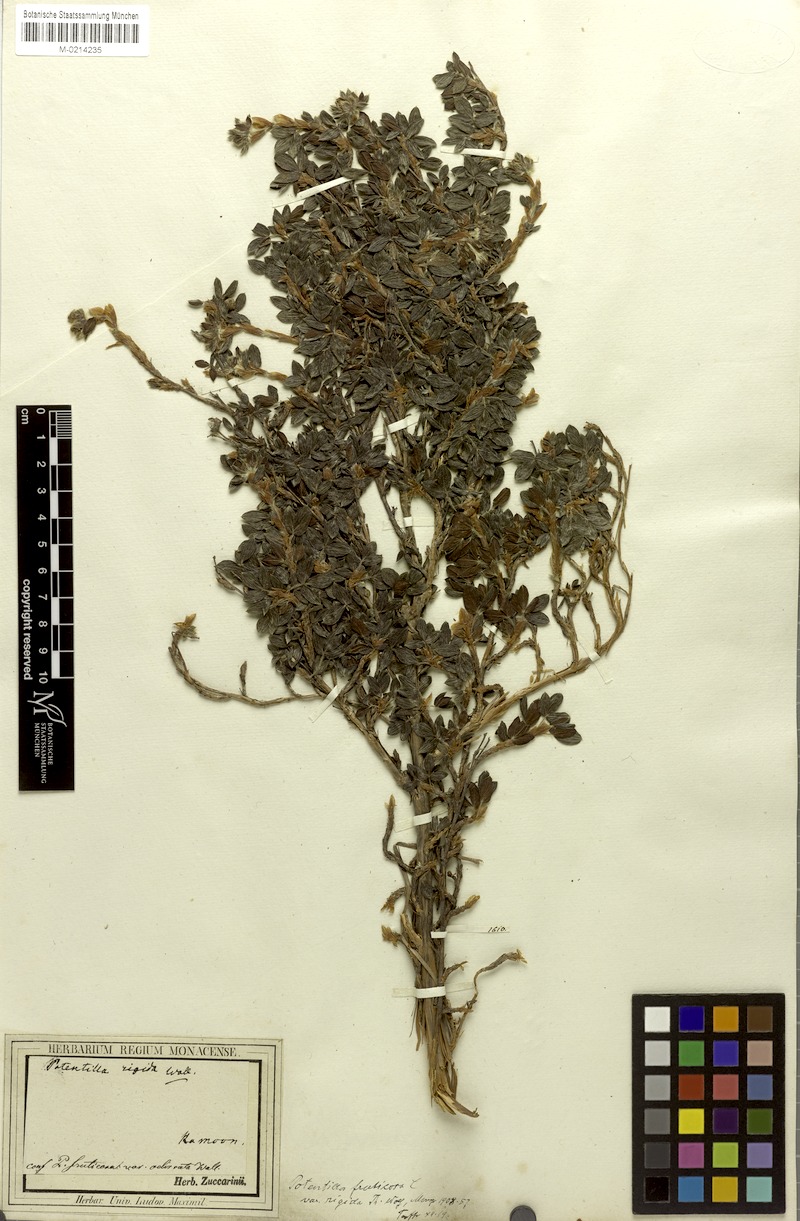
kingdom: Plantae
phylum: Tracheophyta
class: Magnoliopsida
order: Rosales
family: Rosaceae
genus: Dasiphora
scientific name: Dasiphora fruticosa
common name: Shrubby cinquefoil
